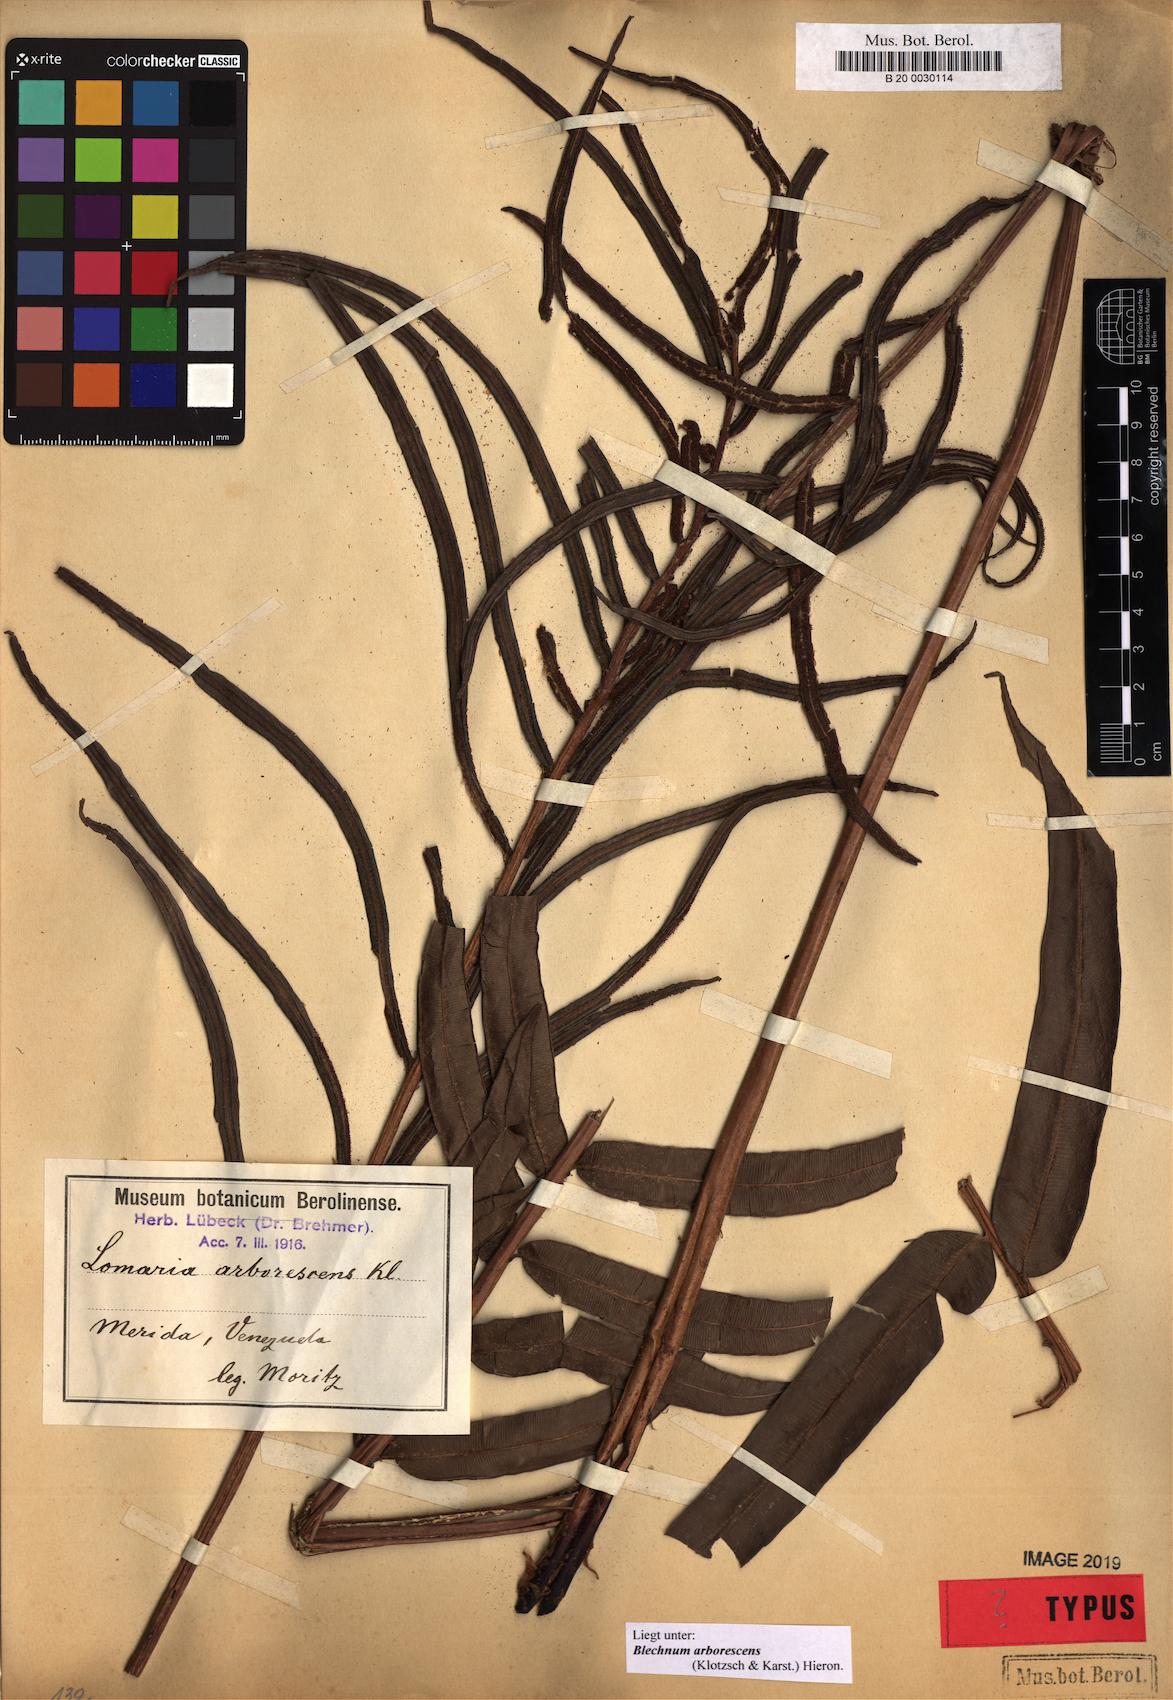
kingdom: Plantae
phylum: Tracheophyta
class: Polypodiopsida
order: Polypodiales
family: Blechnaceae
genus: Parablechnum
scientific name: Parablechnum cordatum
